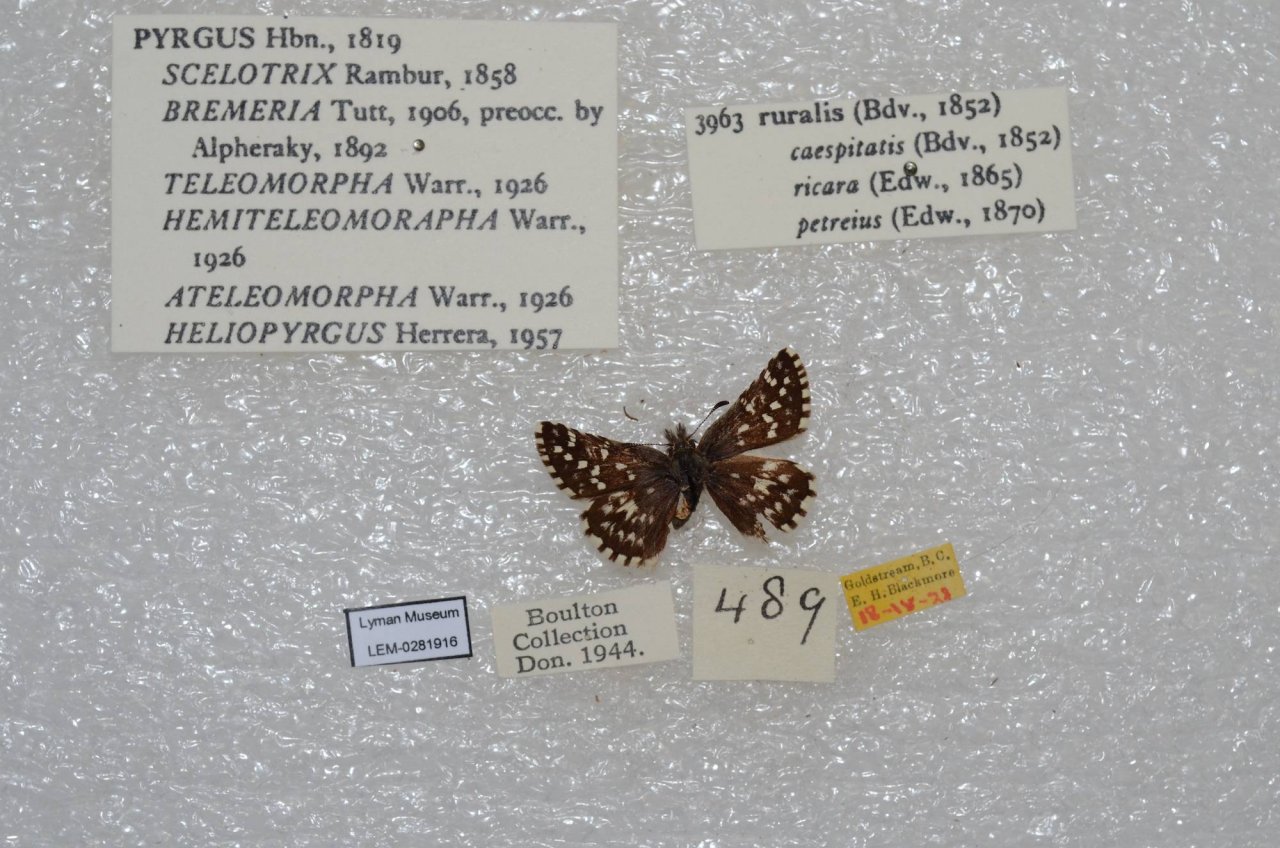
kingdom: Animalia
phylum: Arthropoda
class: Insecta
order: Lepidoptera
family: Hesperiidae
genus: Pyrgus
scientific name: Pyrgus ruralis
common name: Two-banded Checkered-Skipper
